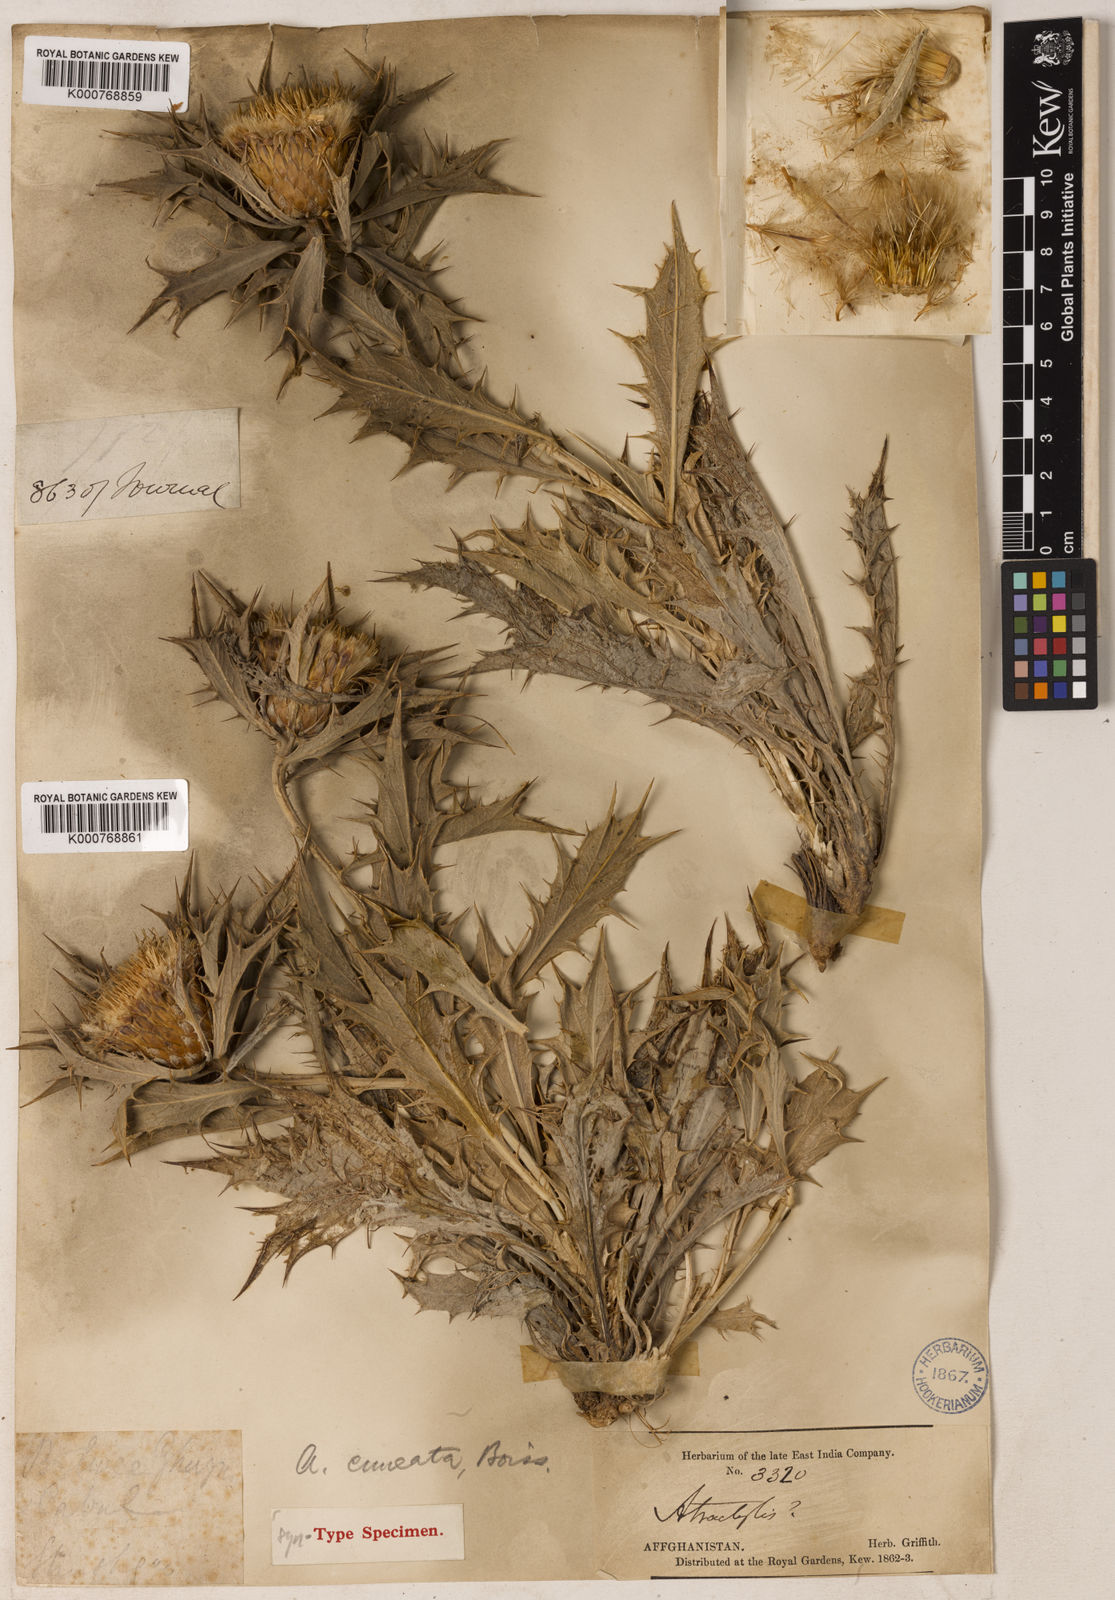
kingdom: Plantae
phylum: Tracheophyta
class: Magnoliopsida
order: Asterales
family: Asteraceae
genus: Chamaeleon
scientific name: Chamaeleon cuneatus
